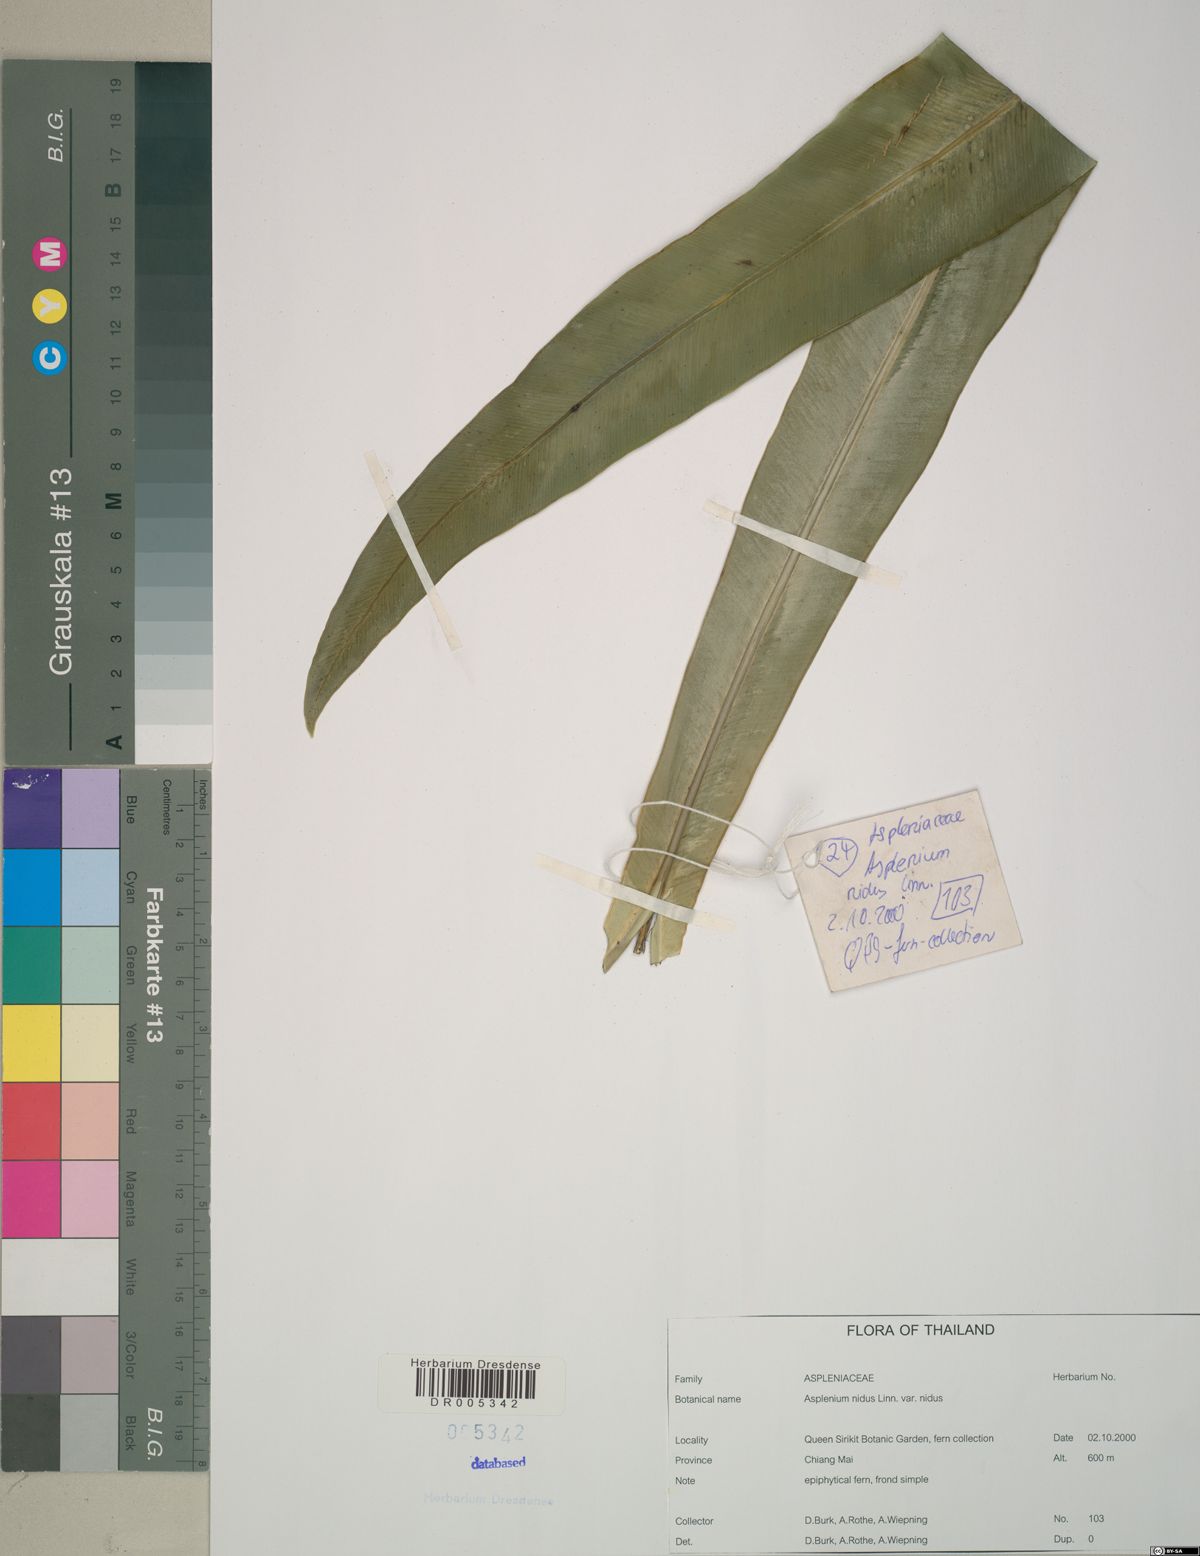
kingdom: Plantae
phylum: Tracheophyta
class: Polypodiopsida
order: Polypodiales
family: Aspleniaceae
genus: Asplenium
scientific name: Asplenium nidus
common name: Bird's-nest fern
